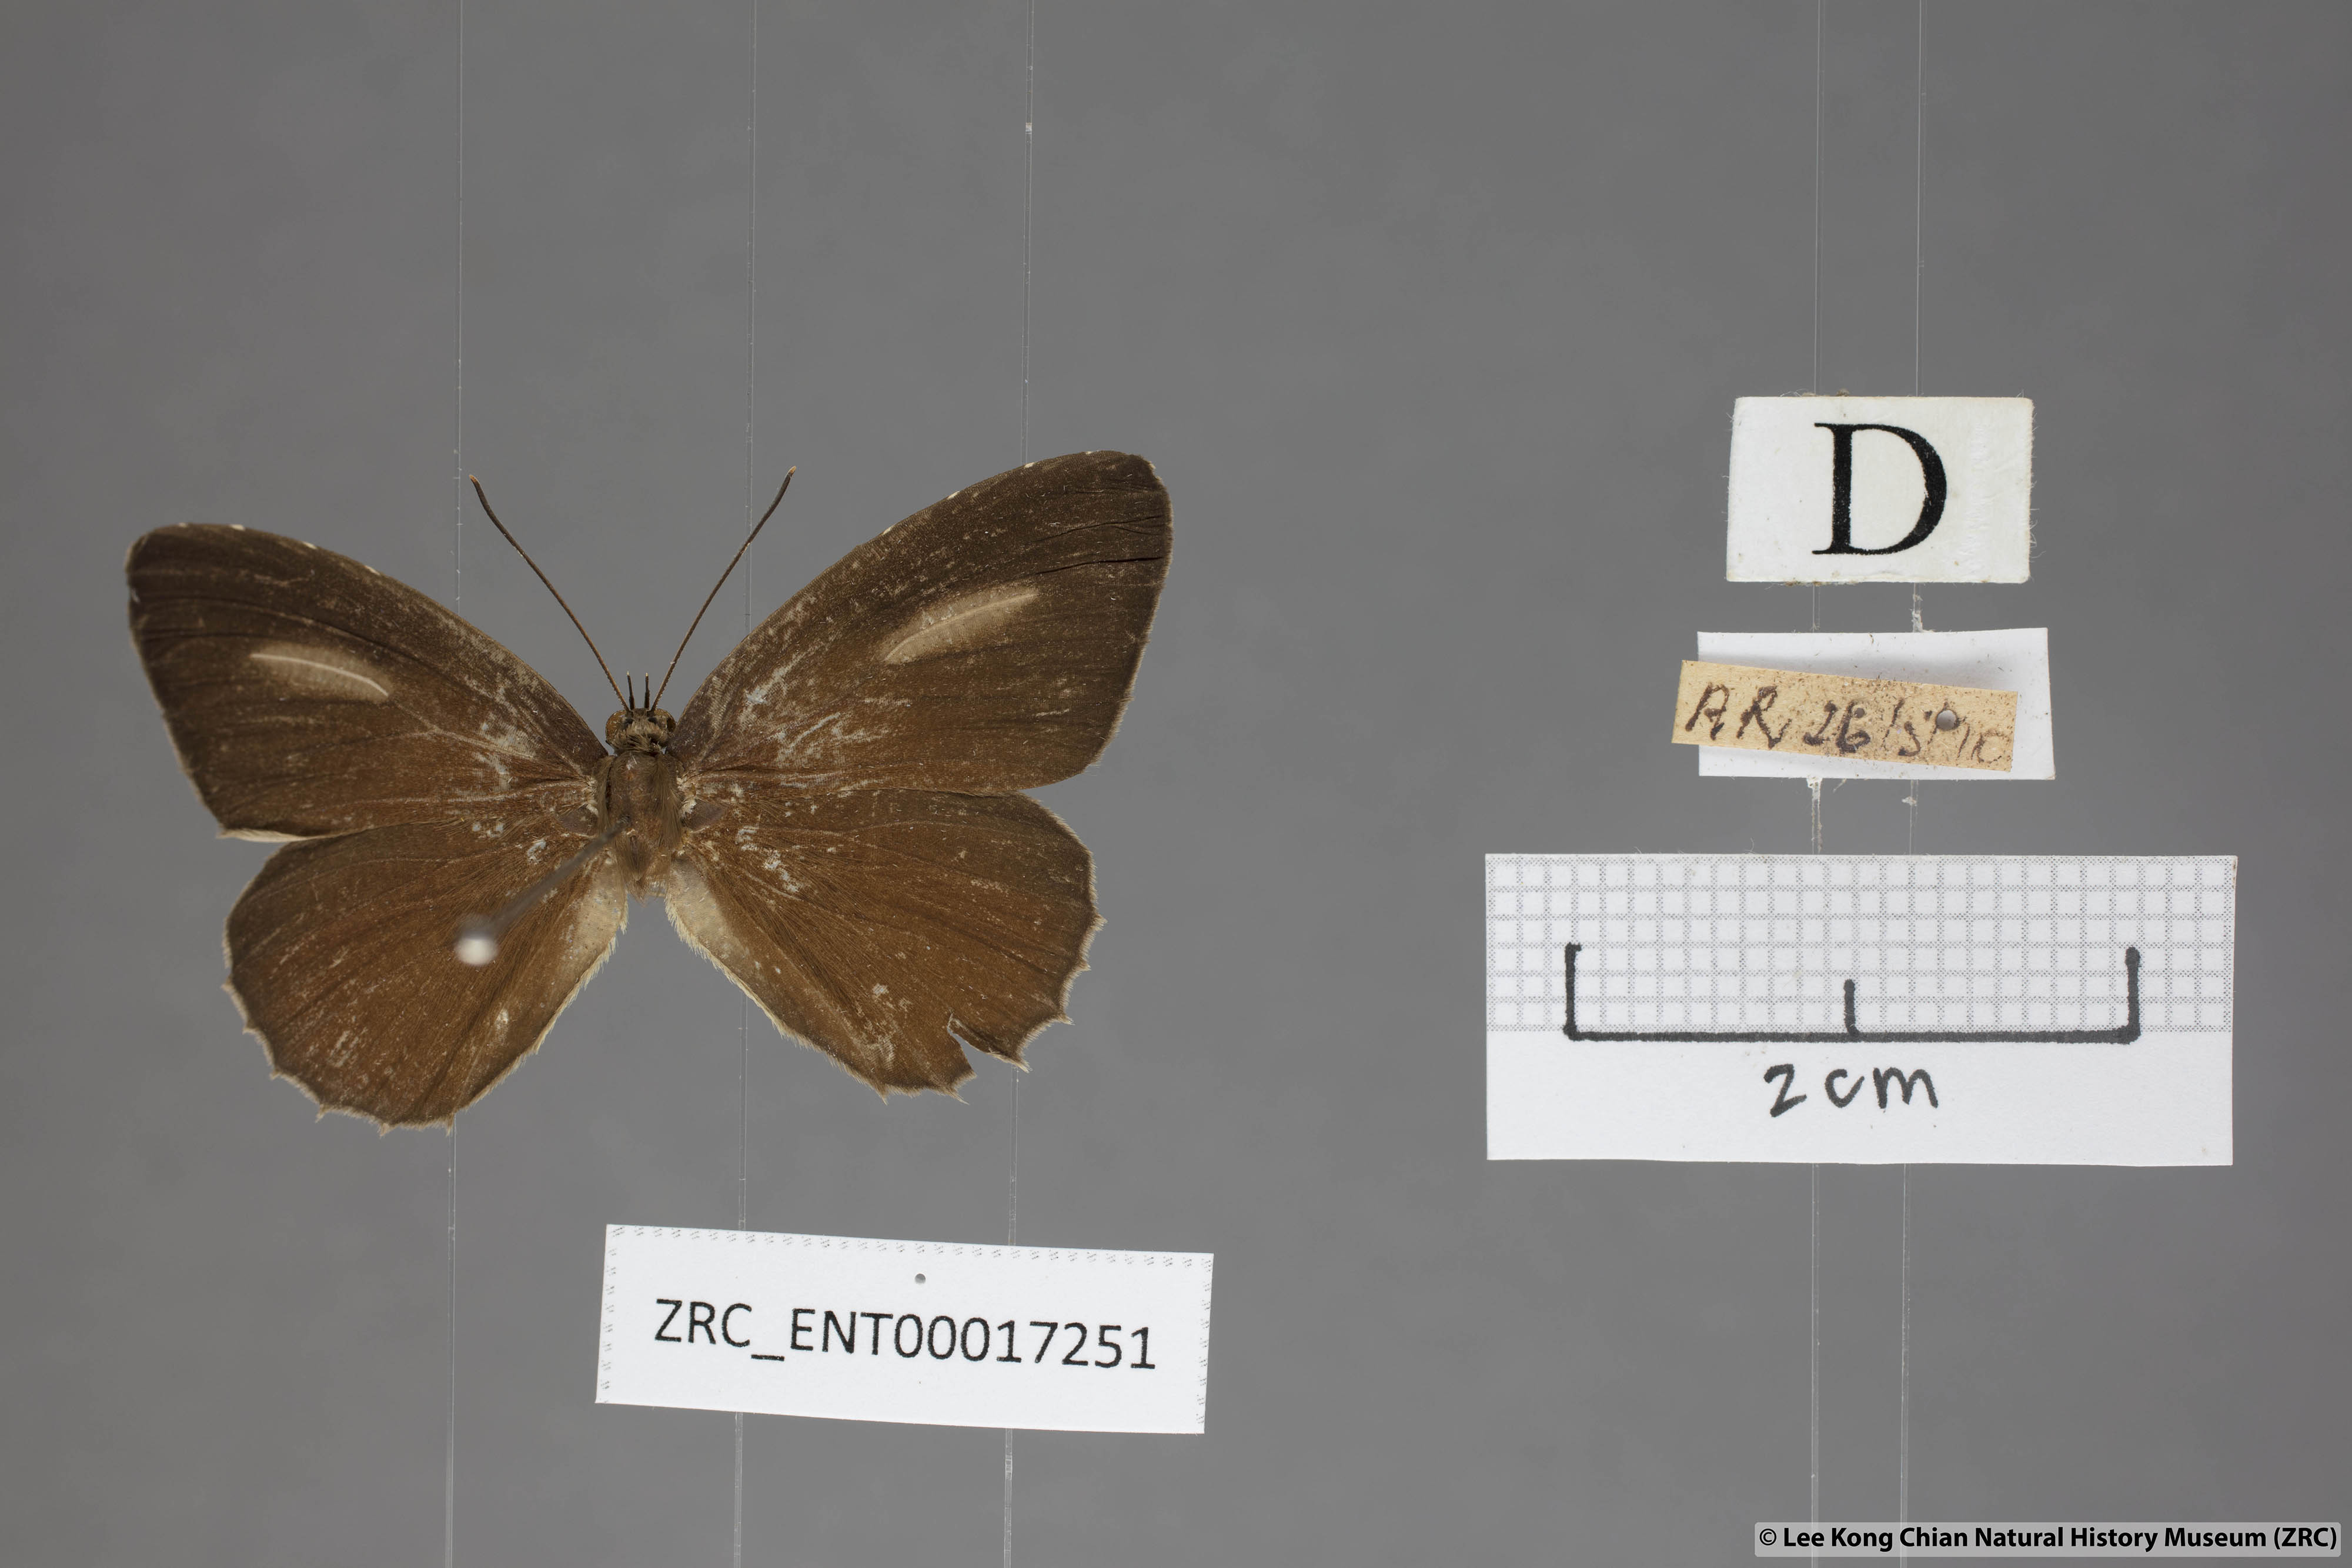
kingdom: Animalia
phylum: Arthropoda
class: Insecta
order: Lepidoptera
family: Lycaenidae
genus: Allotinus
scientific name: Allotinus horsfieldi
